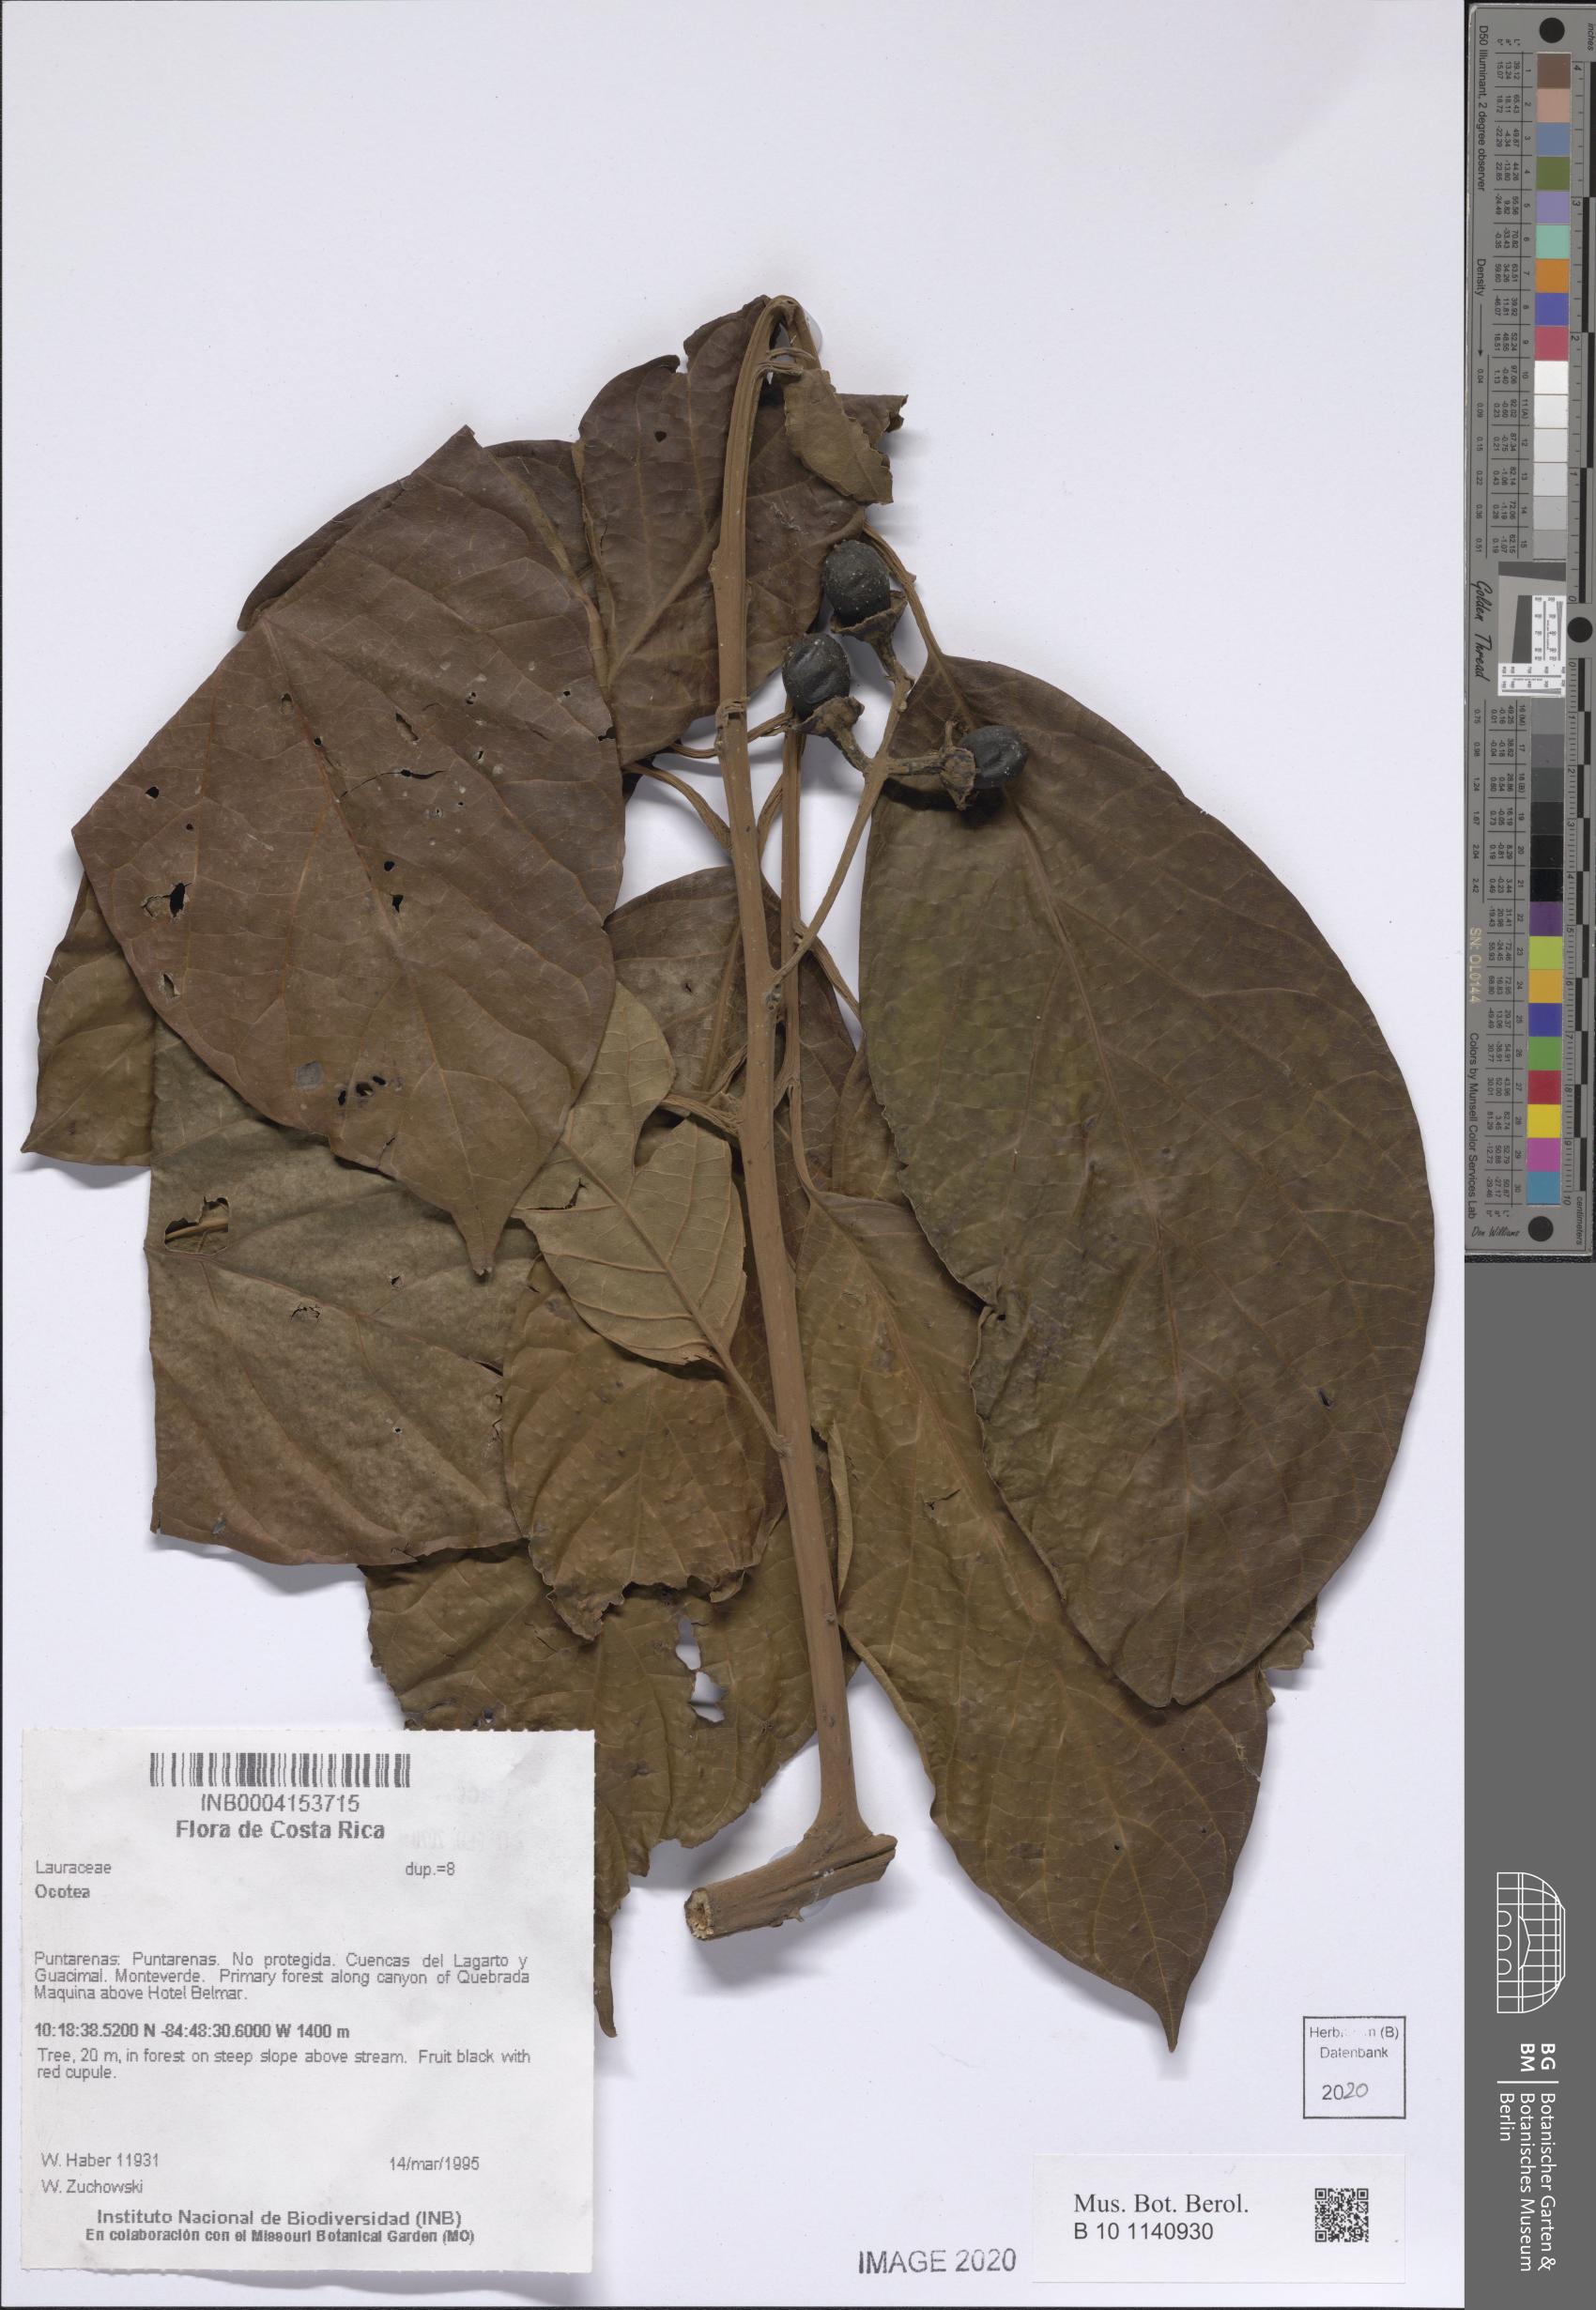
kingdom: Plantae
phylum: Tracheophyta
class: Magnoliopsida
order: Laurales
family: Lauraceae
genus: Ocotea
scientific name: Ocotea
